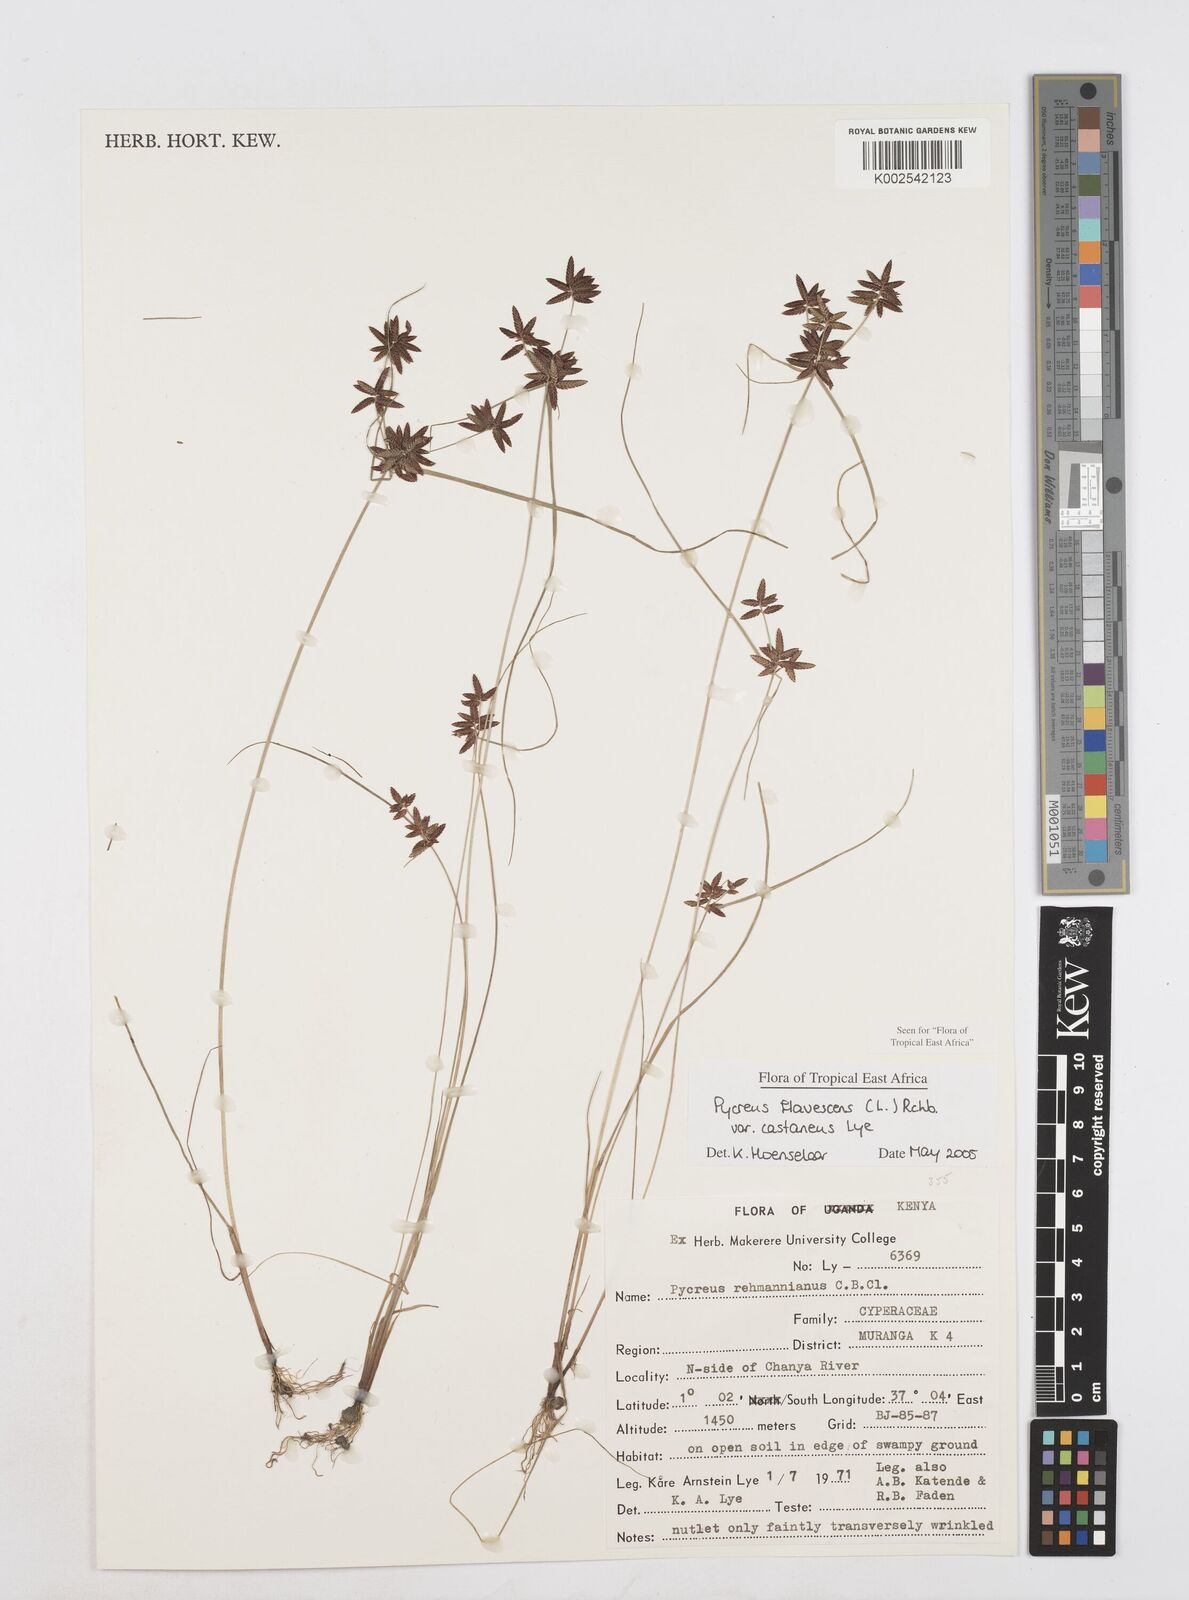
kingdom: Plantae
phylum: Tracheophyta
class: Liliopsida
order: Poales
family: Cyperaceae
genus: Cyperus
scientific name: Cyperus flavescens
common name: Yellow galingale
